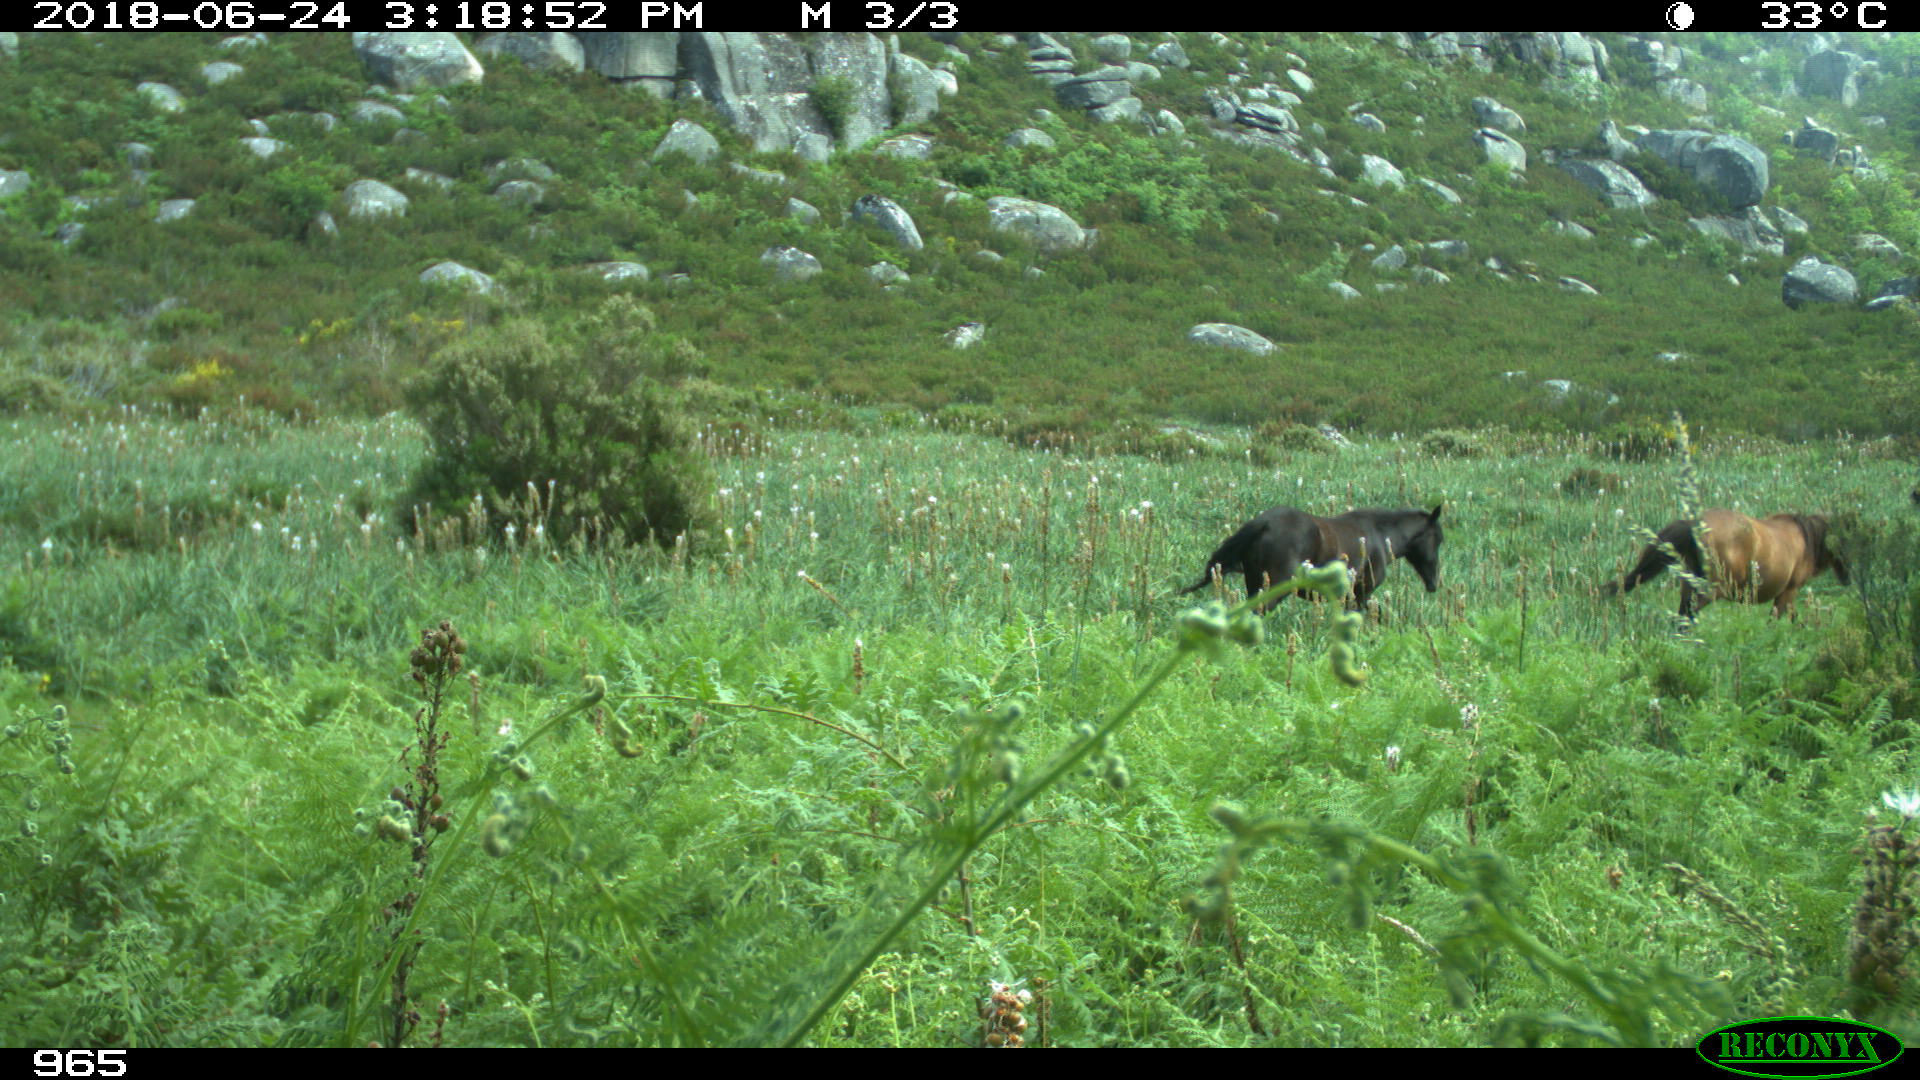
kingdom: Animalia
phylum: Chordata
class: Mammalia
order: Perissodactyla
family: Equidae
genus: Equus
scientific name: Equus caballus
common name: Horse
